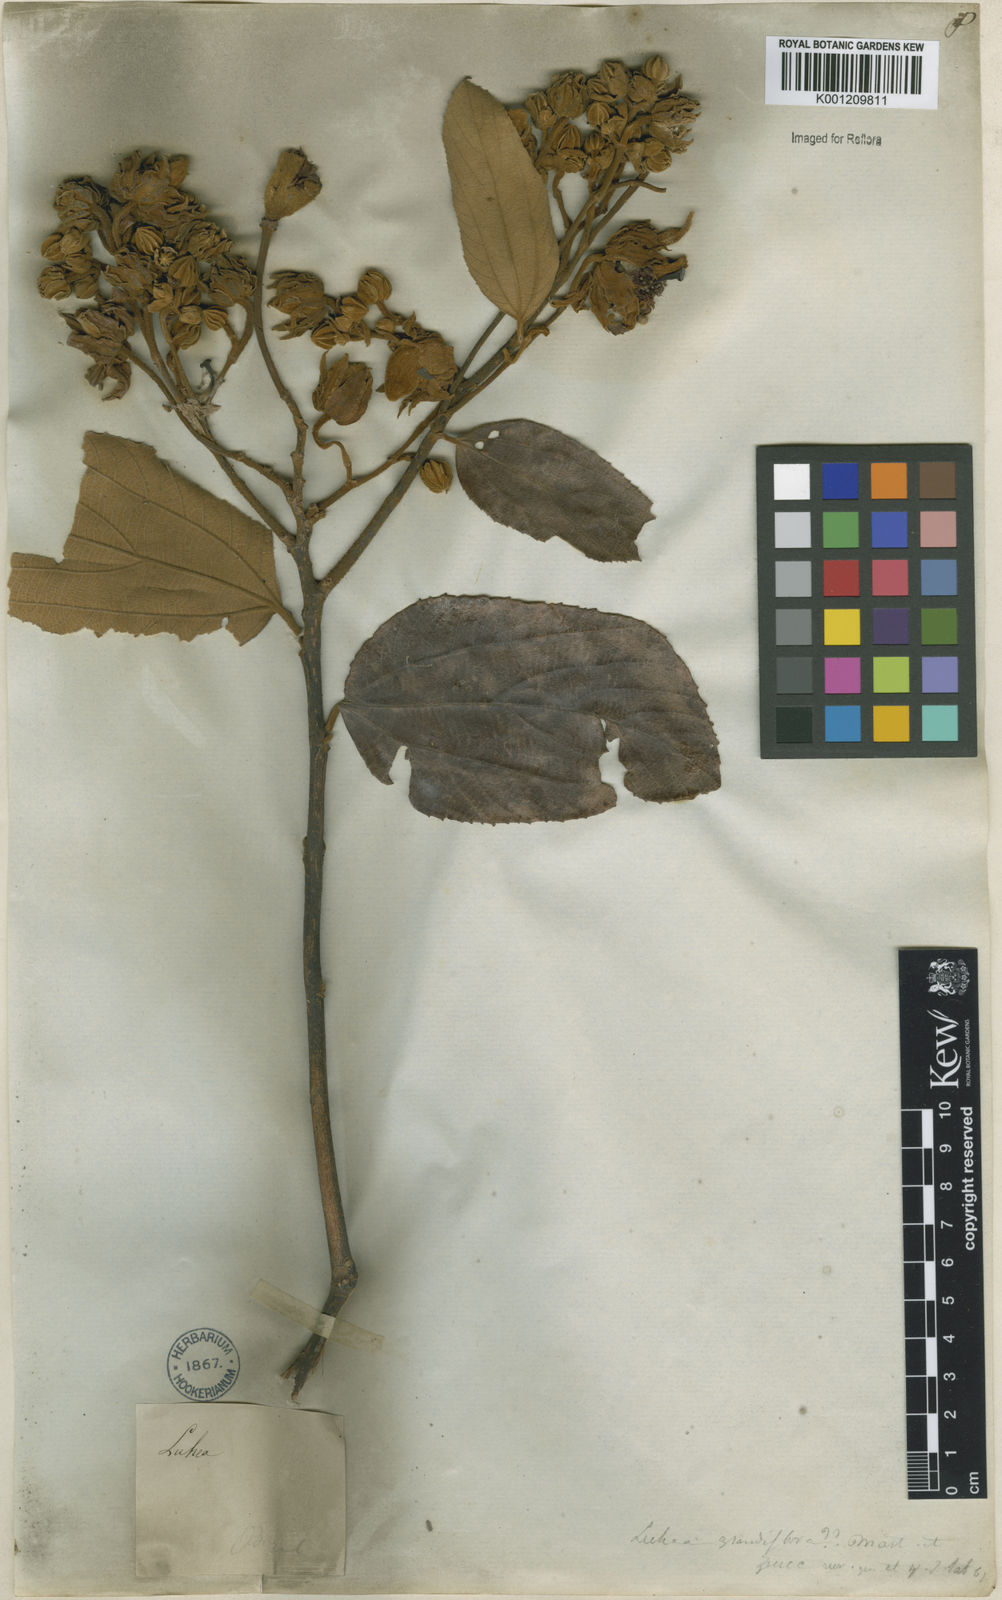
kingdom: Plantae
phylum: Tracheophyta
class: Magnoliopsida
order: Malvales
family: Malvaceae
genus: Luehea
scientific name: Luehea grandiflora
